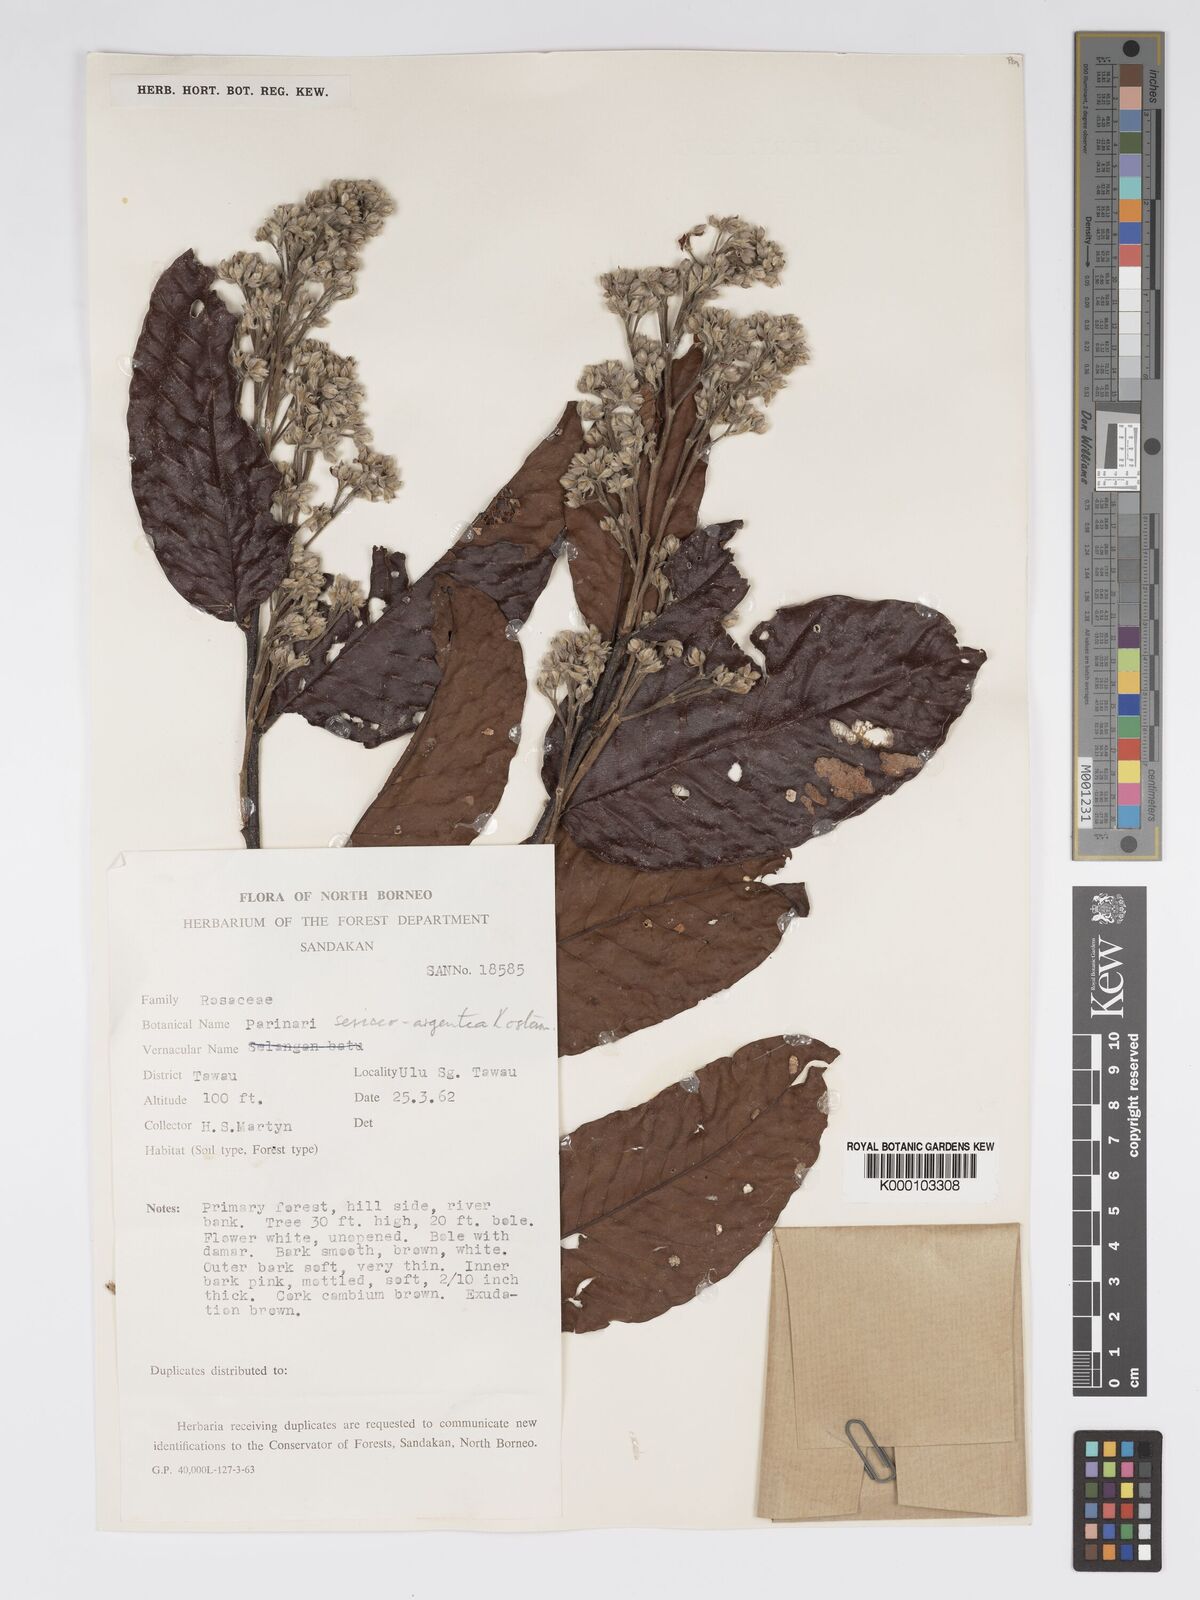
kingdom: Plantae
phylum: Tracheophyta
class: Magnoliopsida
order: Malpighiales
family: Chrysobalanaceae
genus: Parinari
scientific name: Parinari argenteosericea
